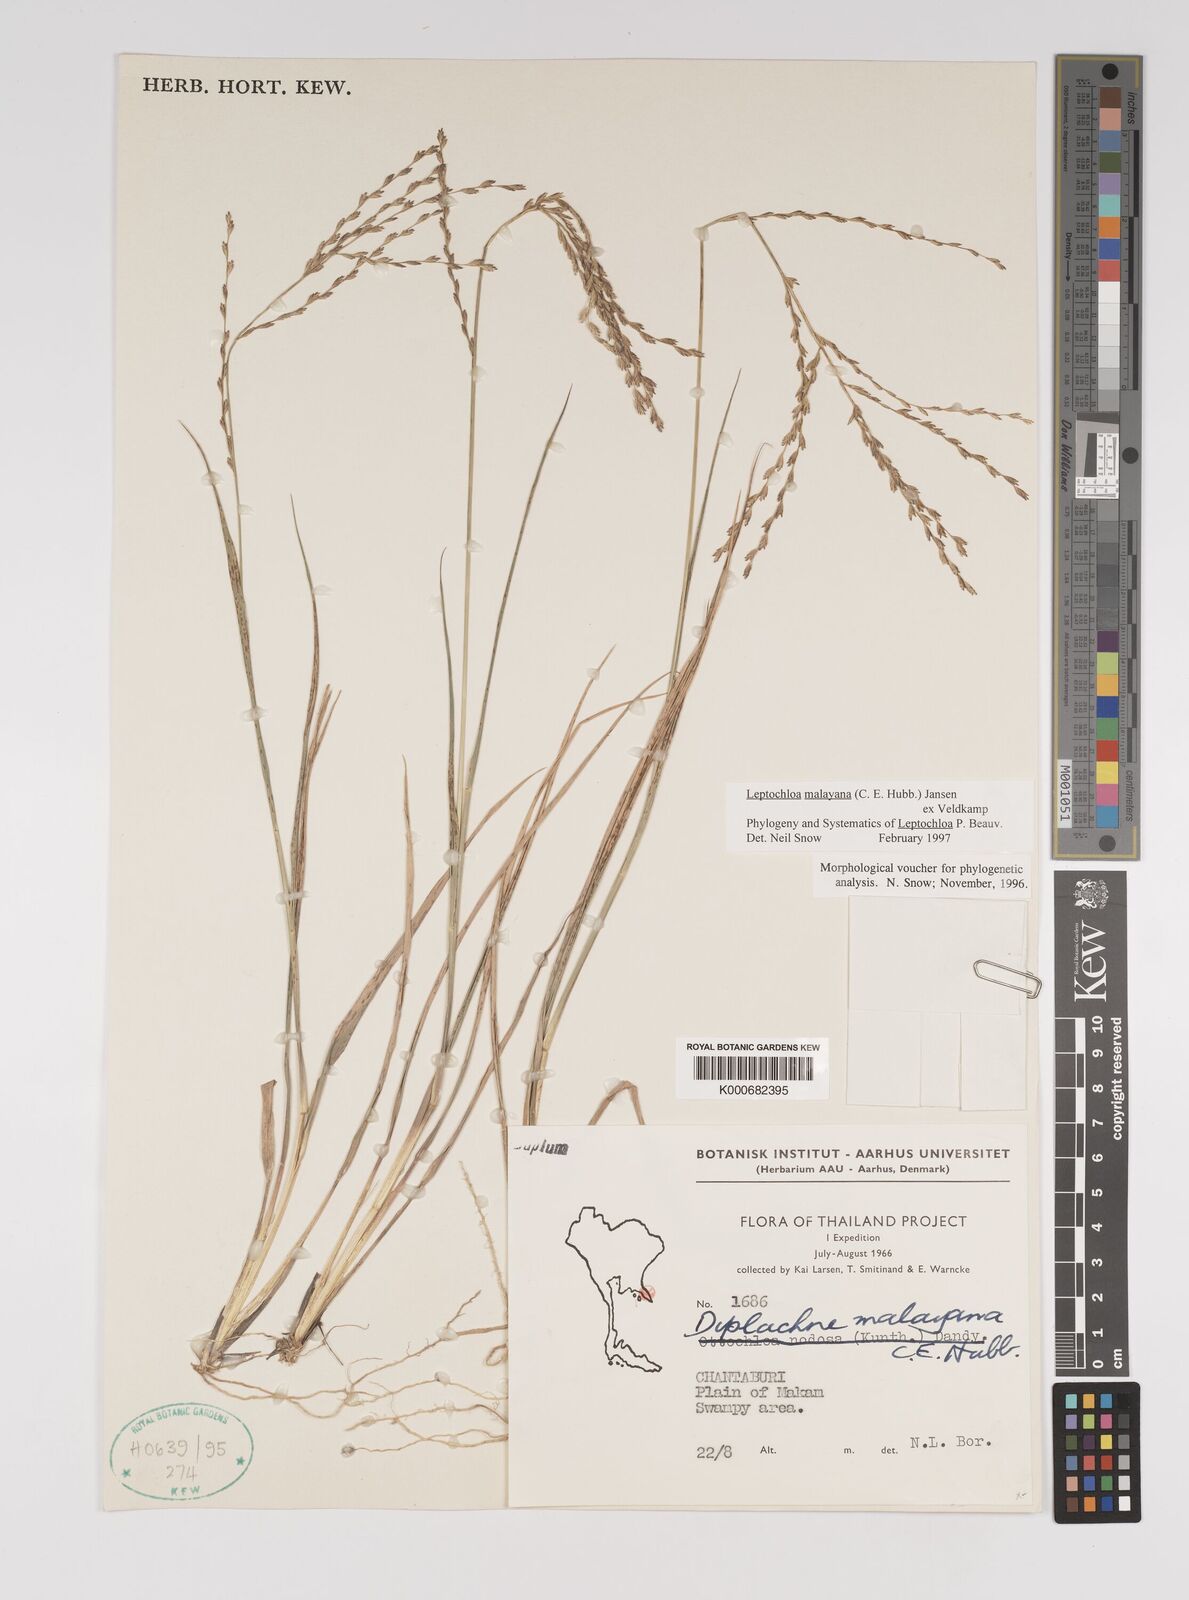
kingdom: Plantae
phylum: Tracheophyta
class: Liliopsida
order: Poales
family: Poaceae
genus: Leptochloa
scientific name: Leptochloa malayana
